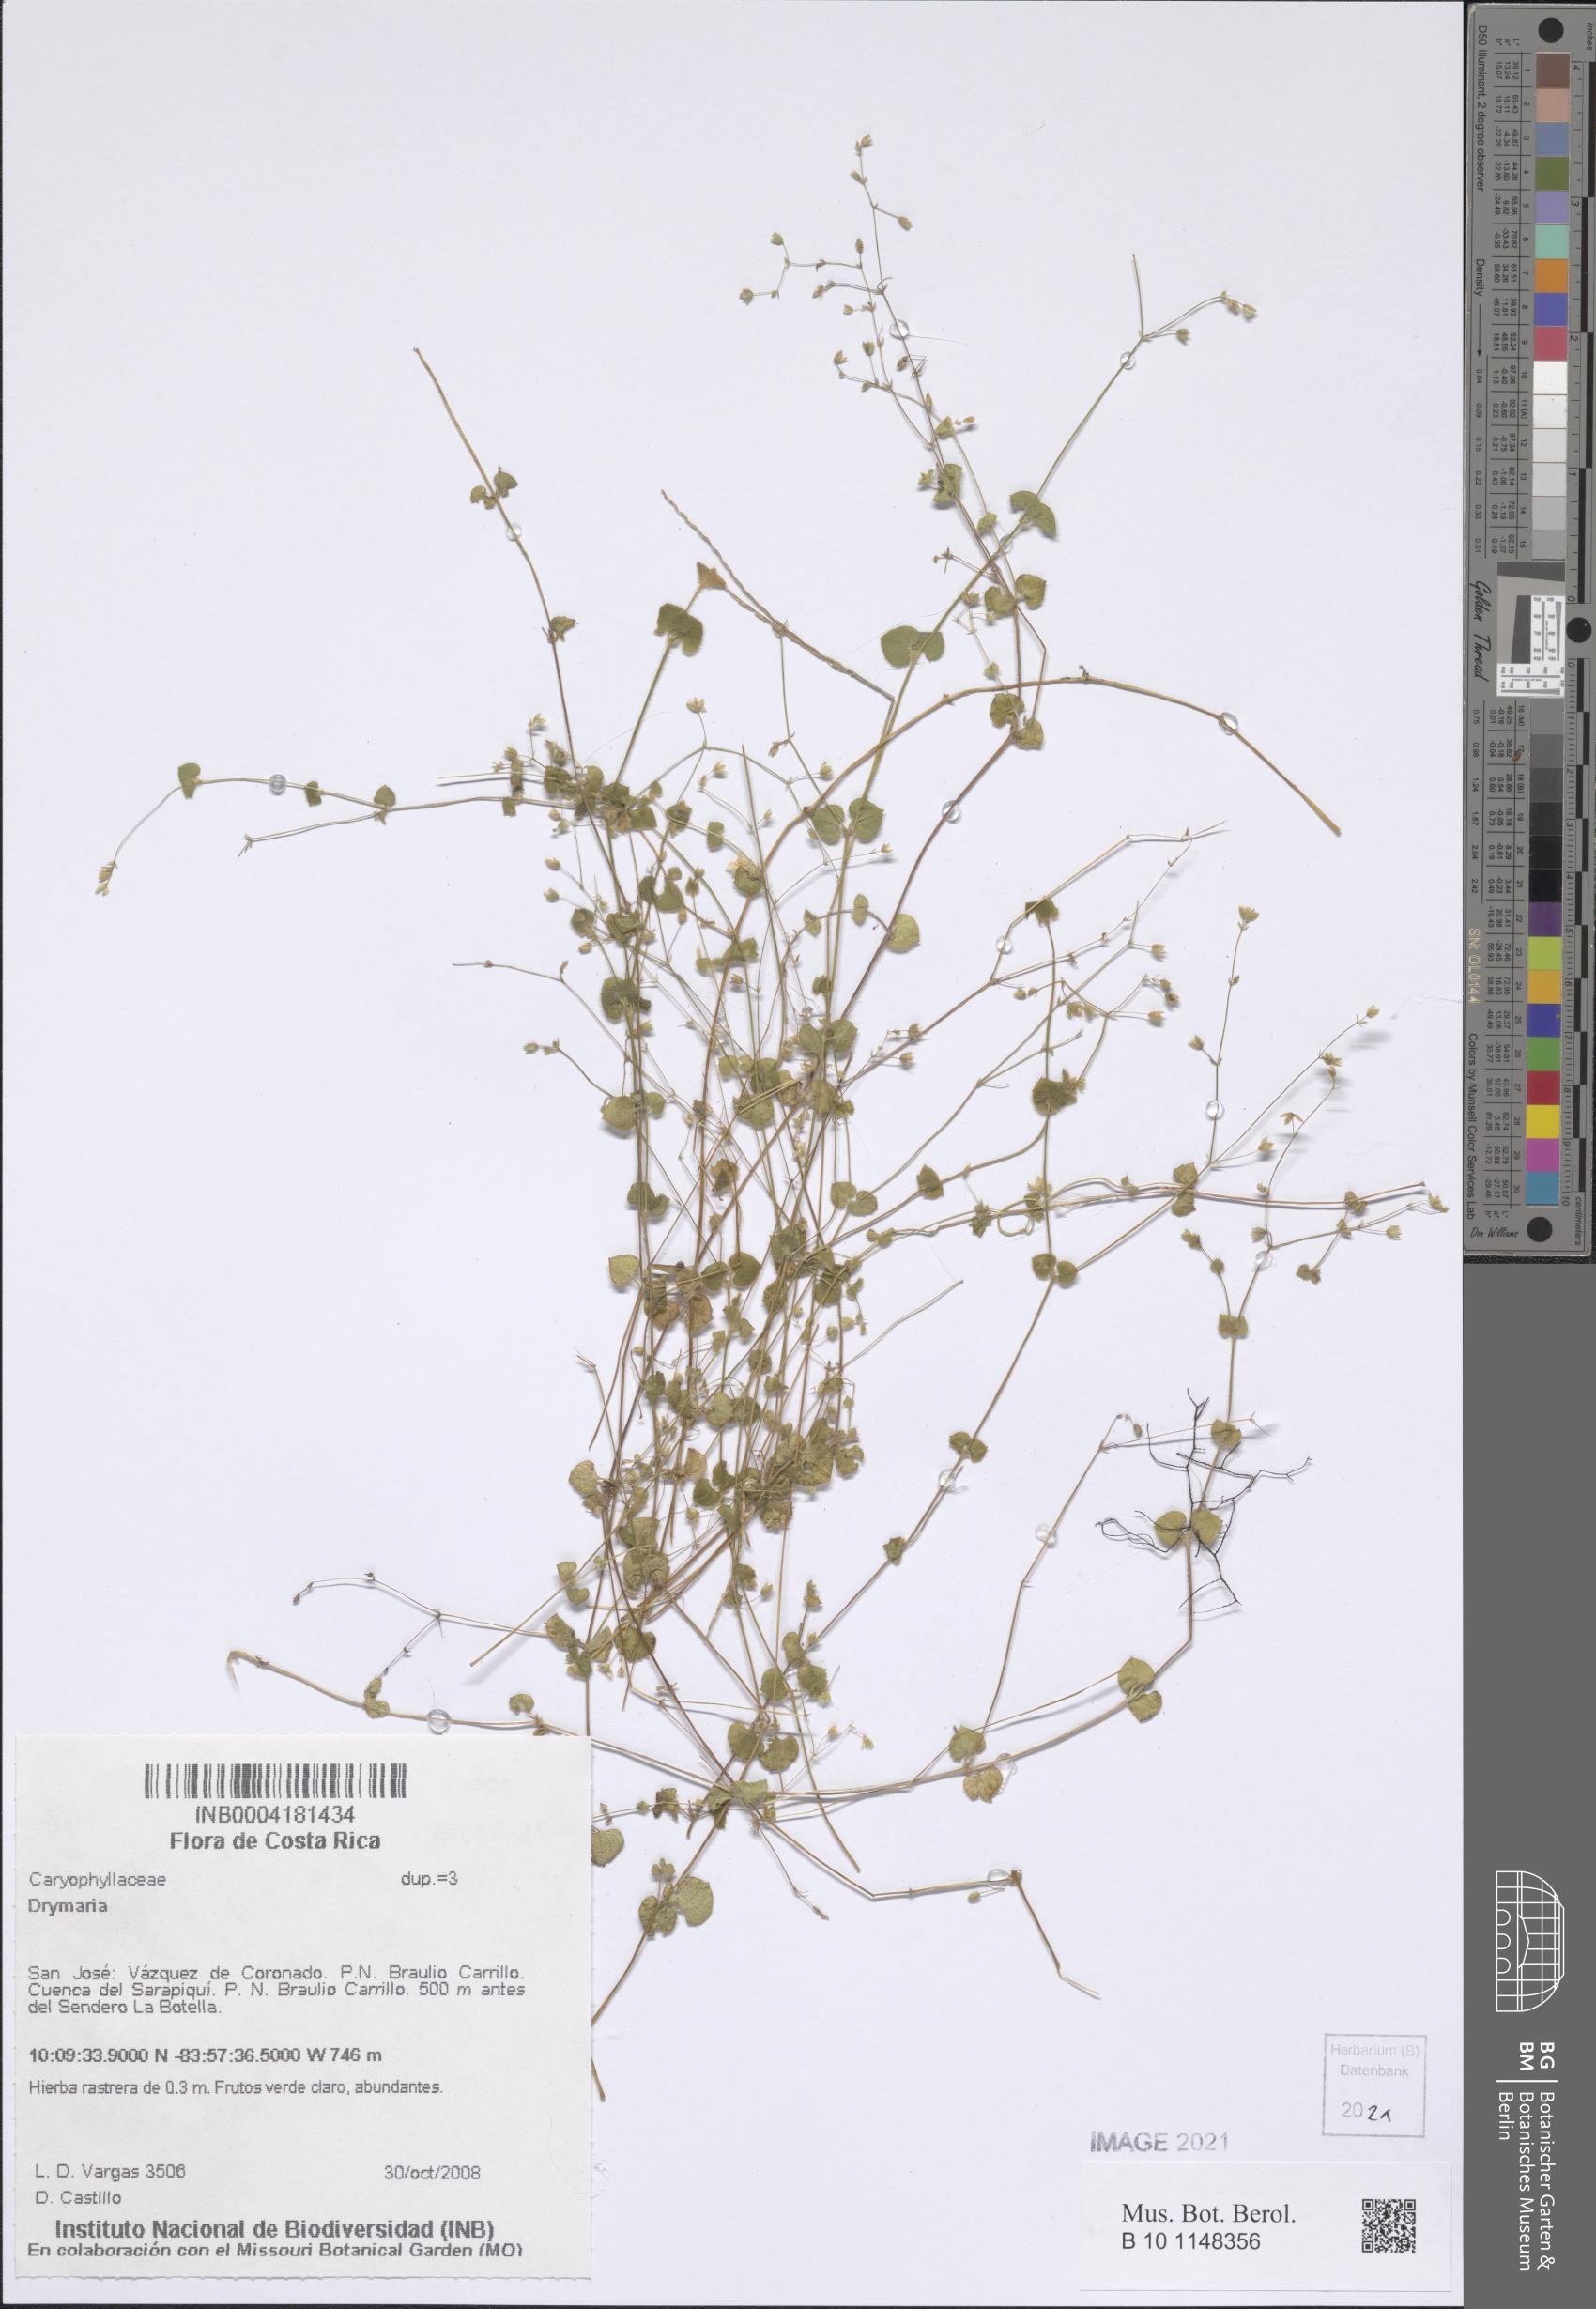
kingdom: Plantae
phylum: Tracheophyta
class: Magnoliopsida
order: Caryophyllales
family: Caryophyllaceae
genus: Drymaria
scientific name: Drymaria villosa
